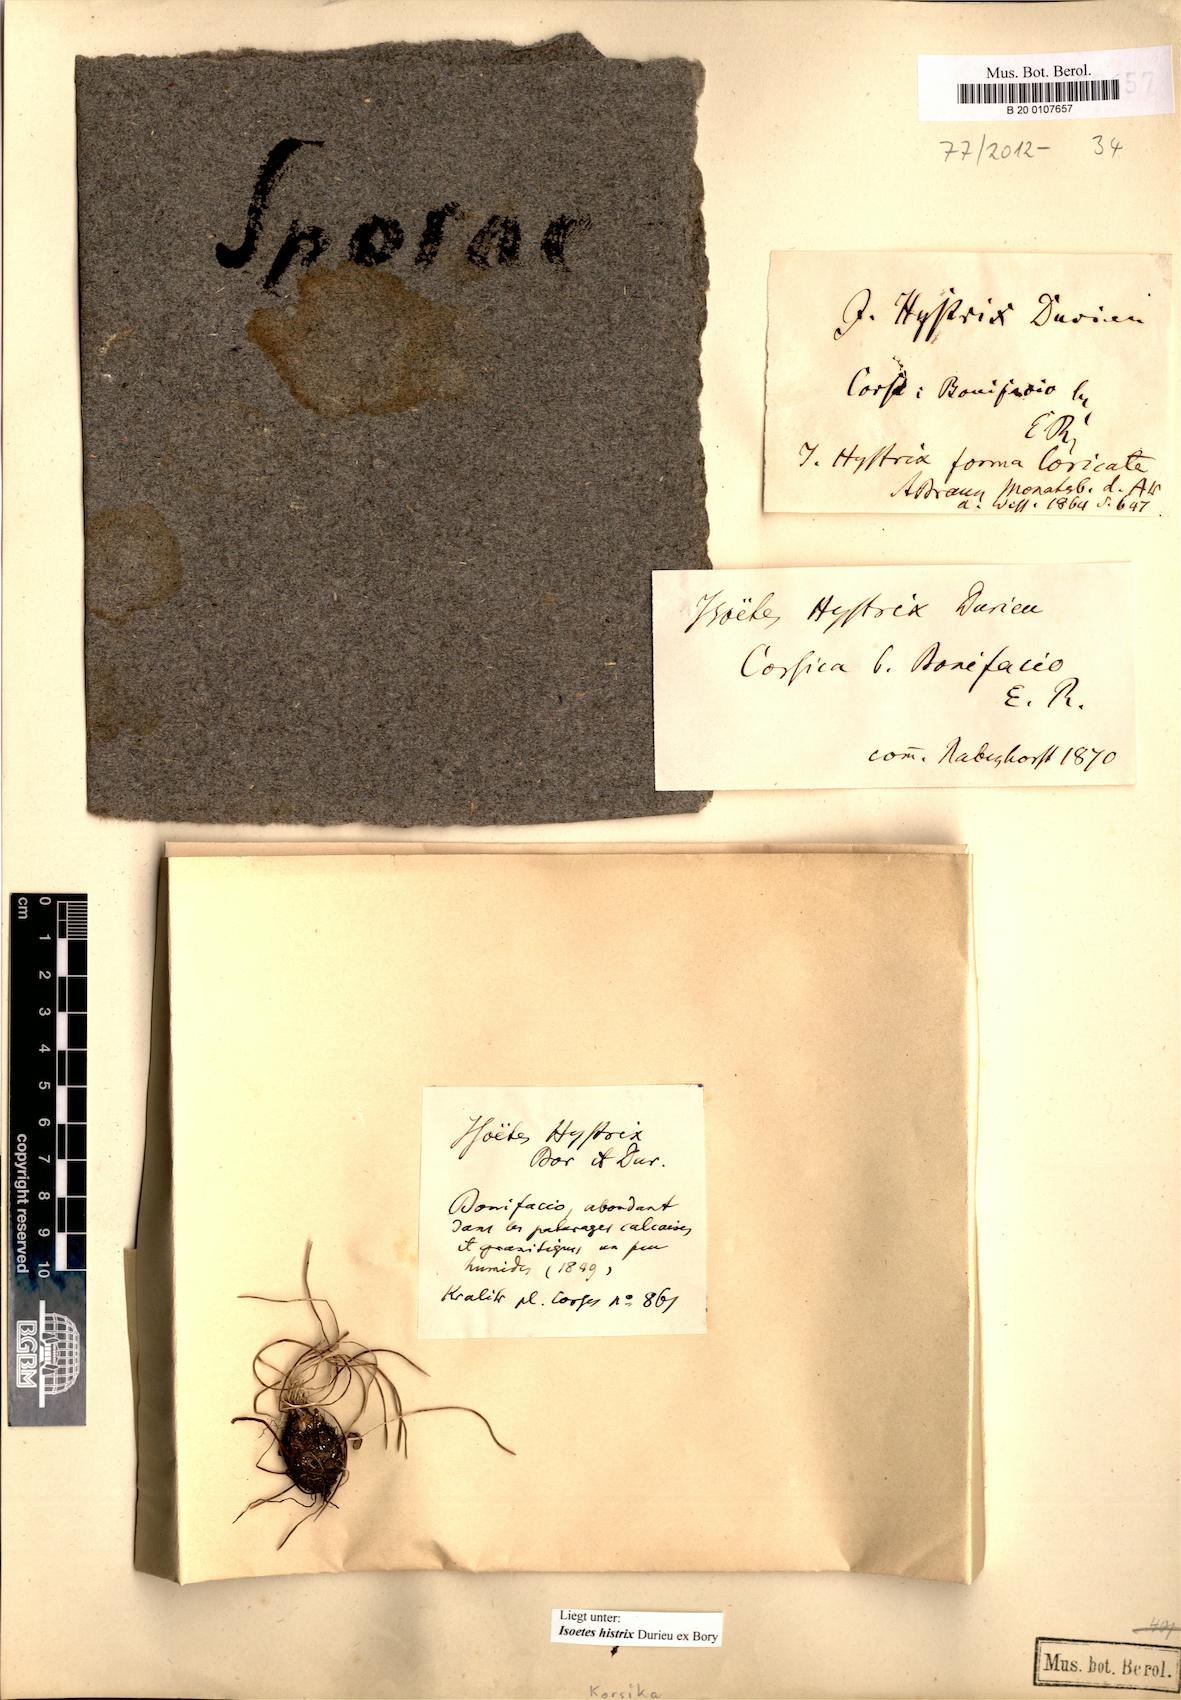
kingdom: Plantae
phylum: Tracheophyta
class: Lycopodiopsida
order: Isoetales
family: Isoetaceae
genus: Isoetes
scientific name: Isoetes histrix
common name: Land quillwort
